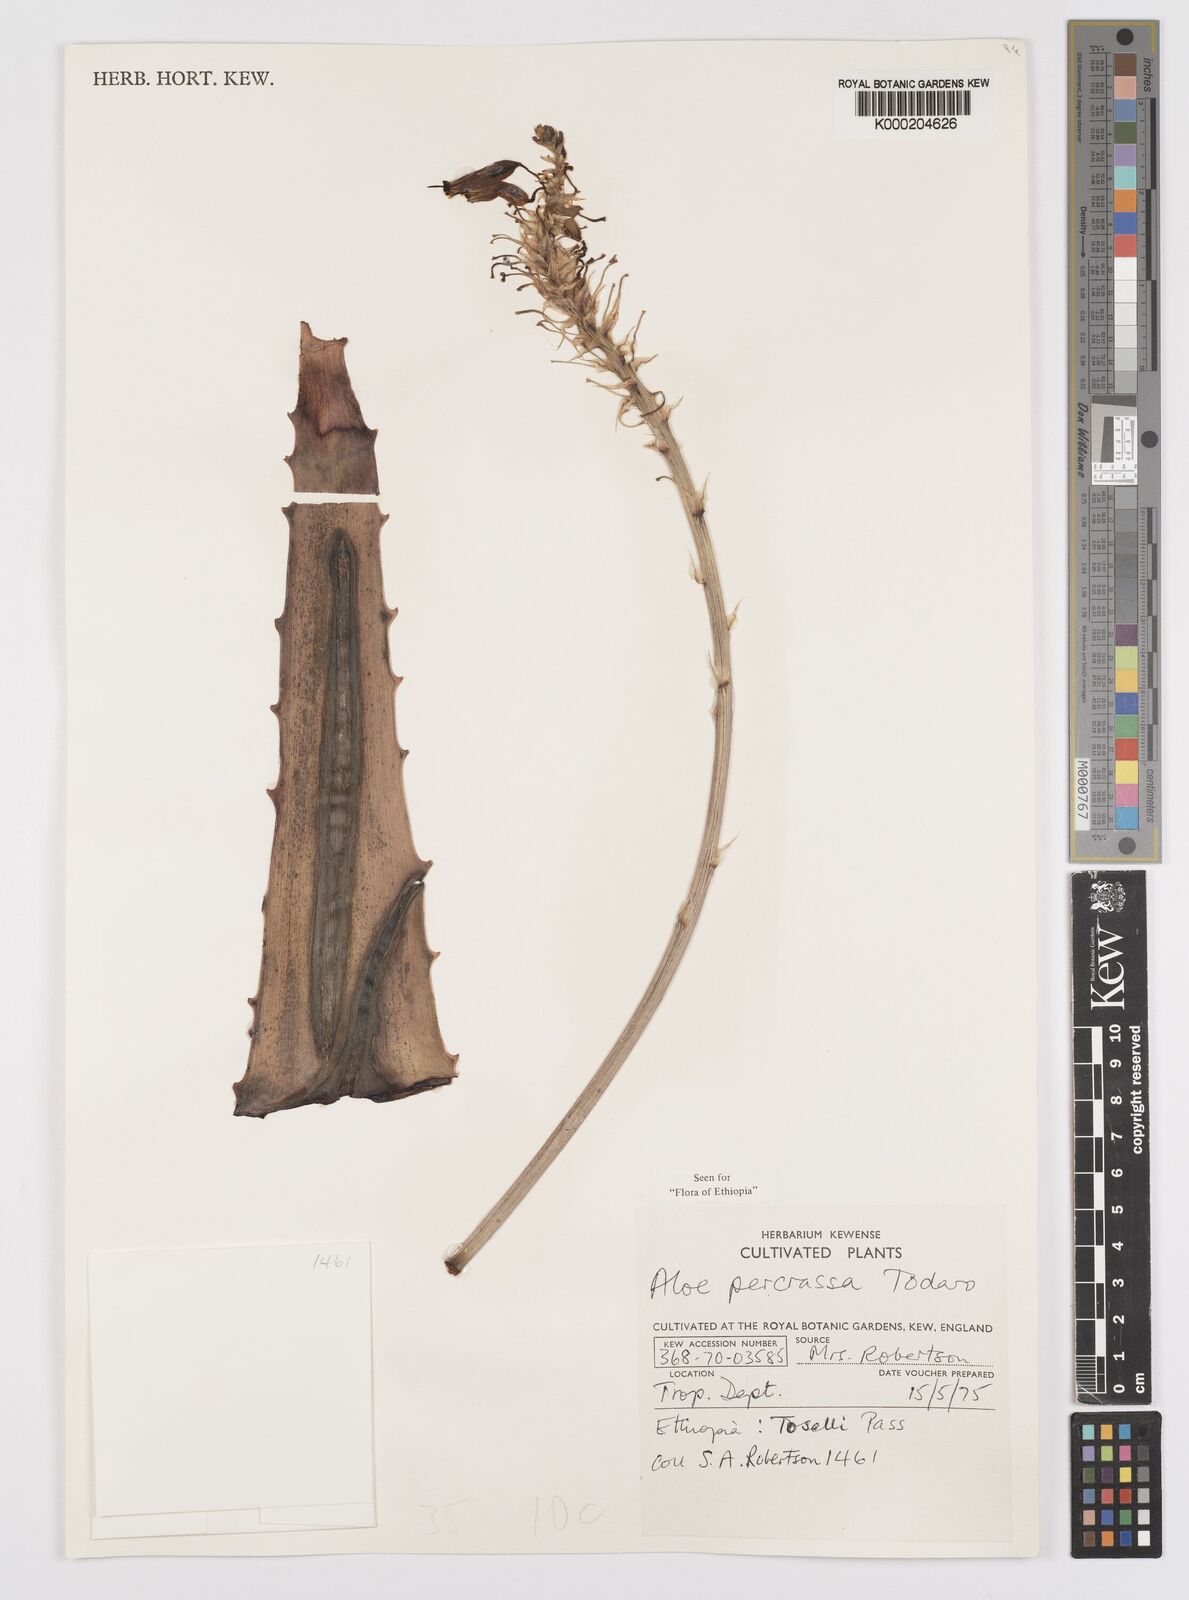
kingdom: Plantae
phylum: Tracheophyta
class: Liliopsida
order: Asparagales
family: Asphodelaceae
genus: Aloe
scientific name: Aloe percrassa
